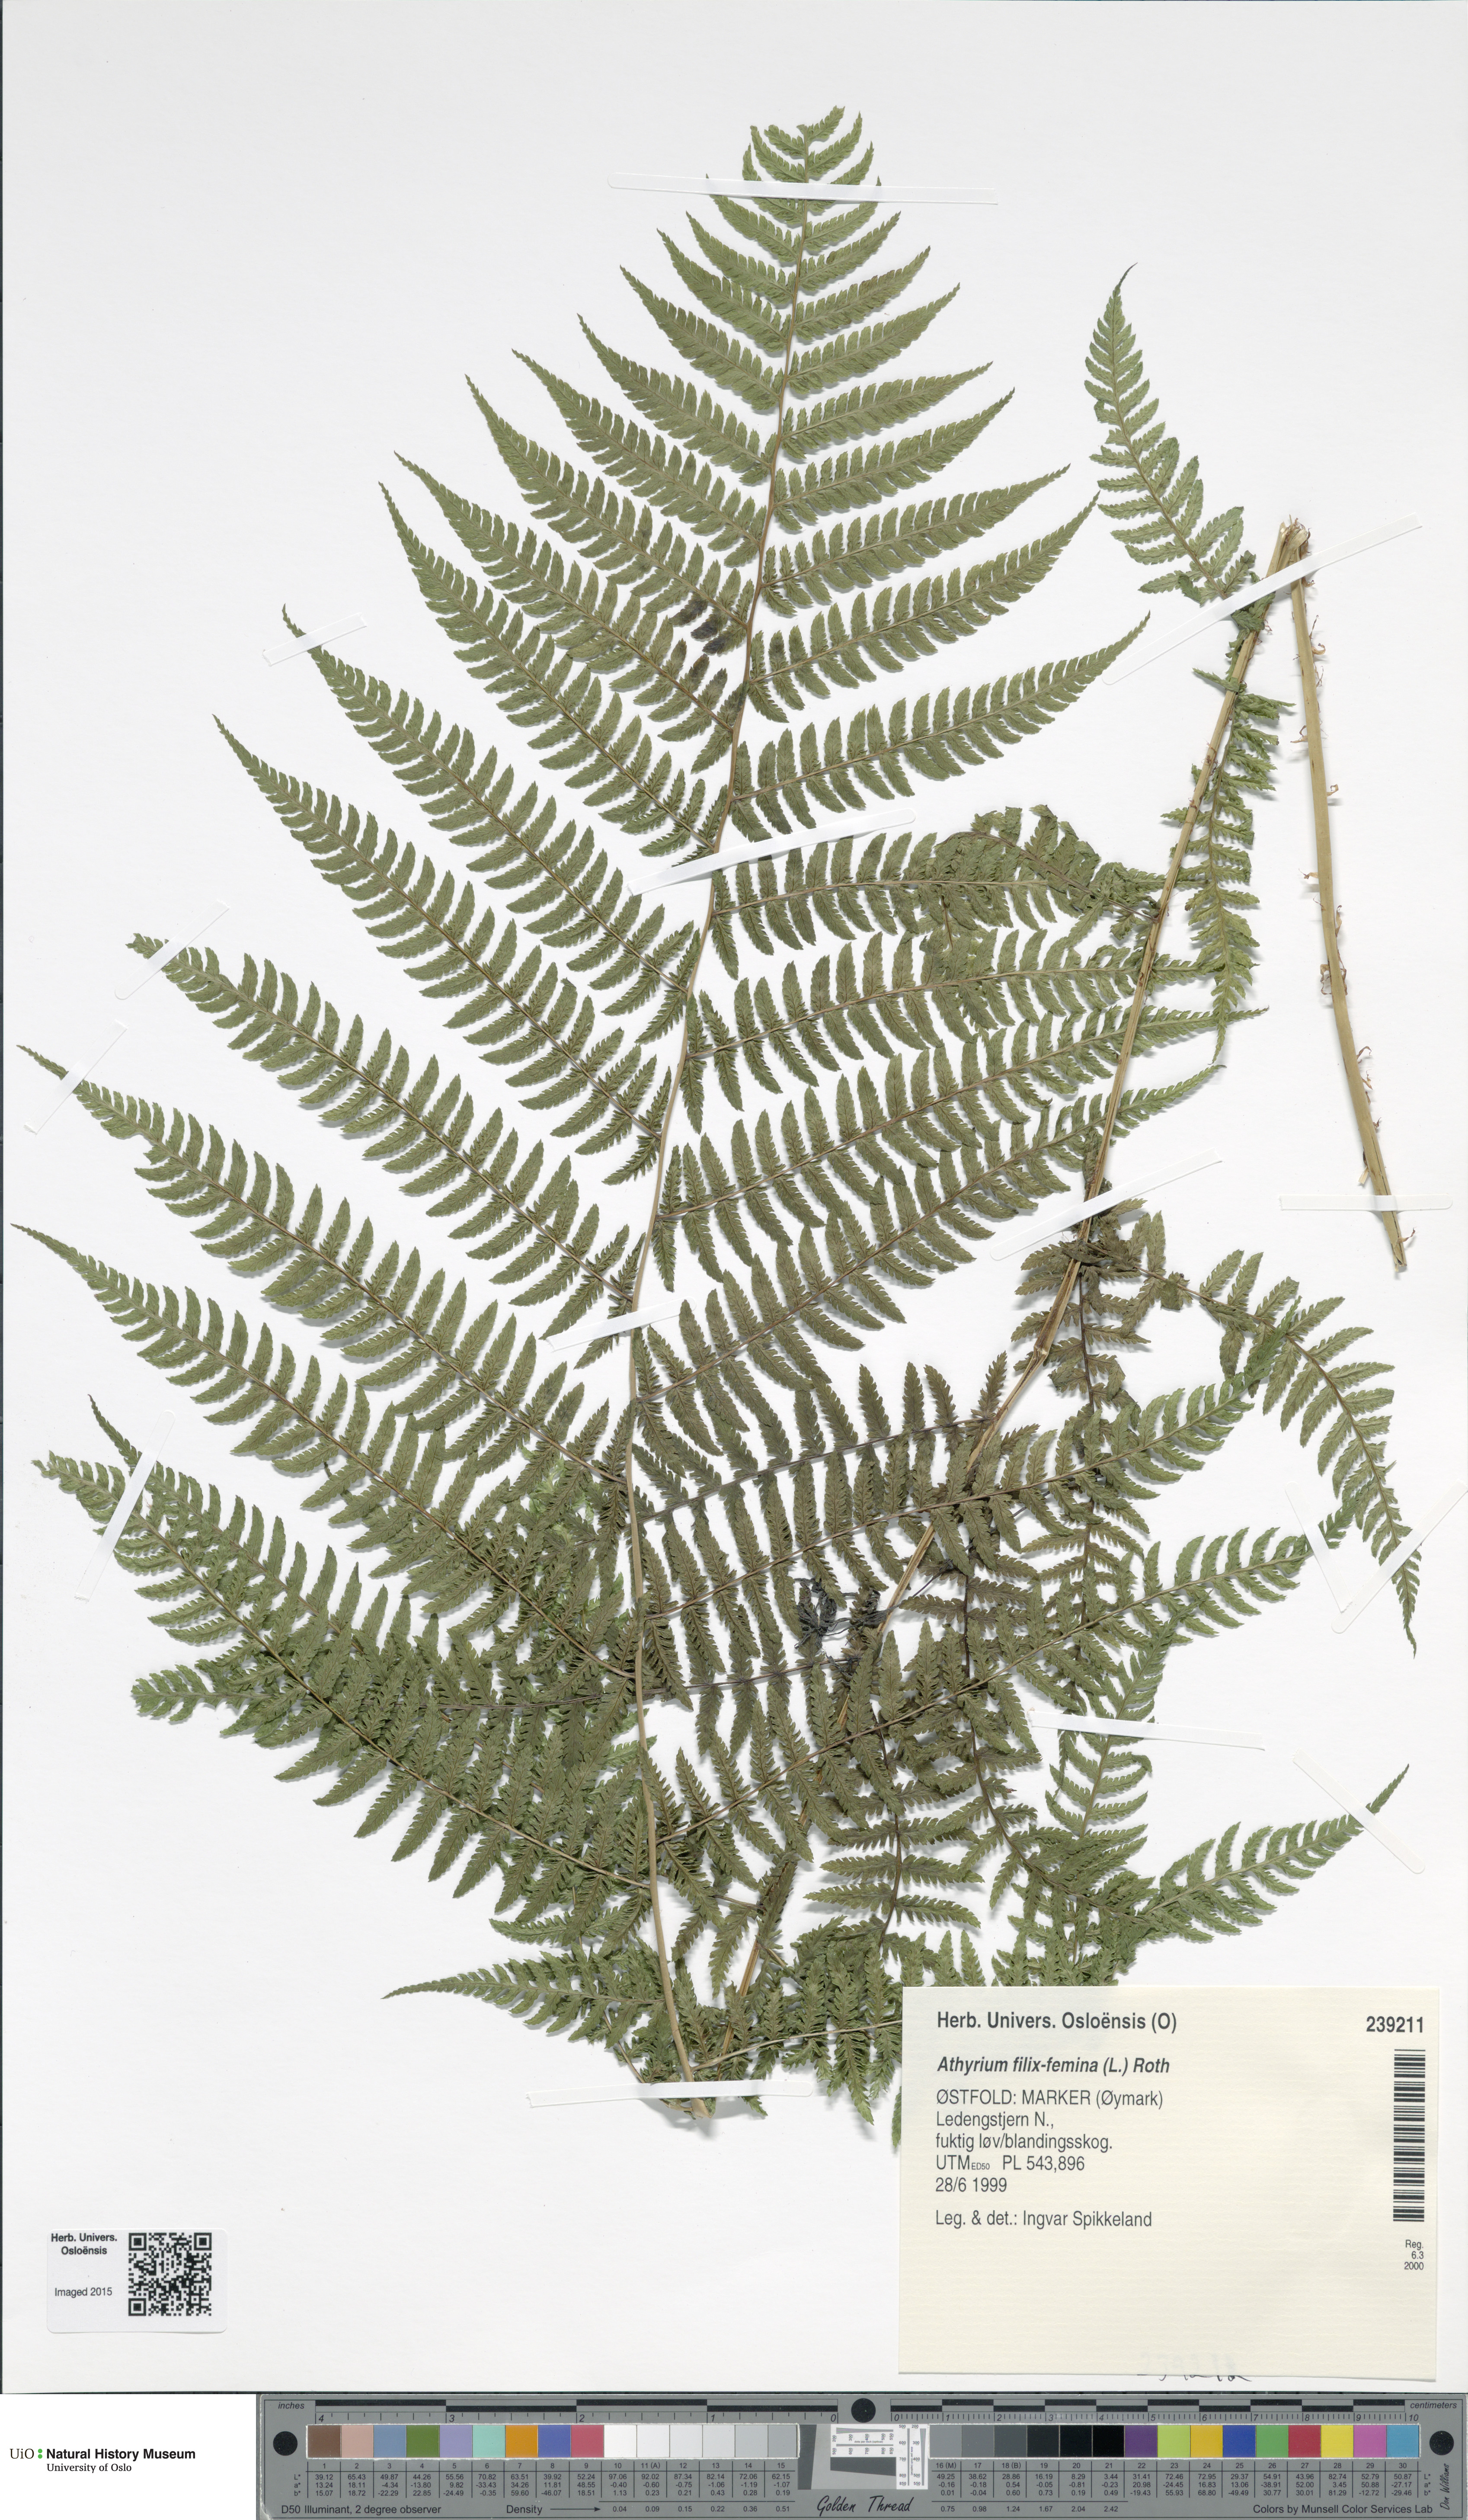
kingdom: Plantae
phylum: Tracheophyta
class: Polypodiopsida
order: Polypodiales
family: Athyriaceae
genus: Athyrium
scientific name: Athyrium filix-femina
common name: Lady fern
